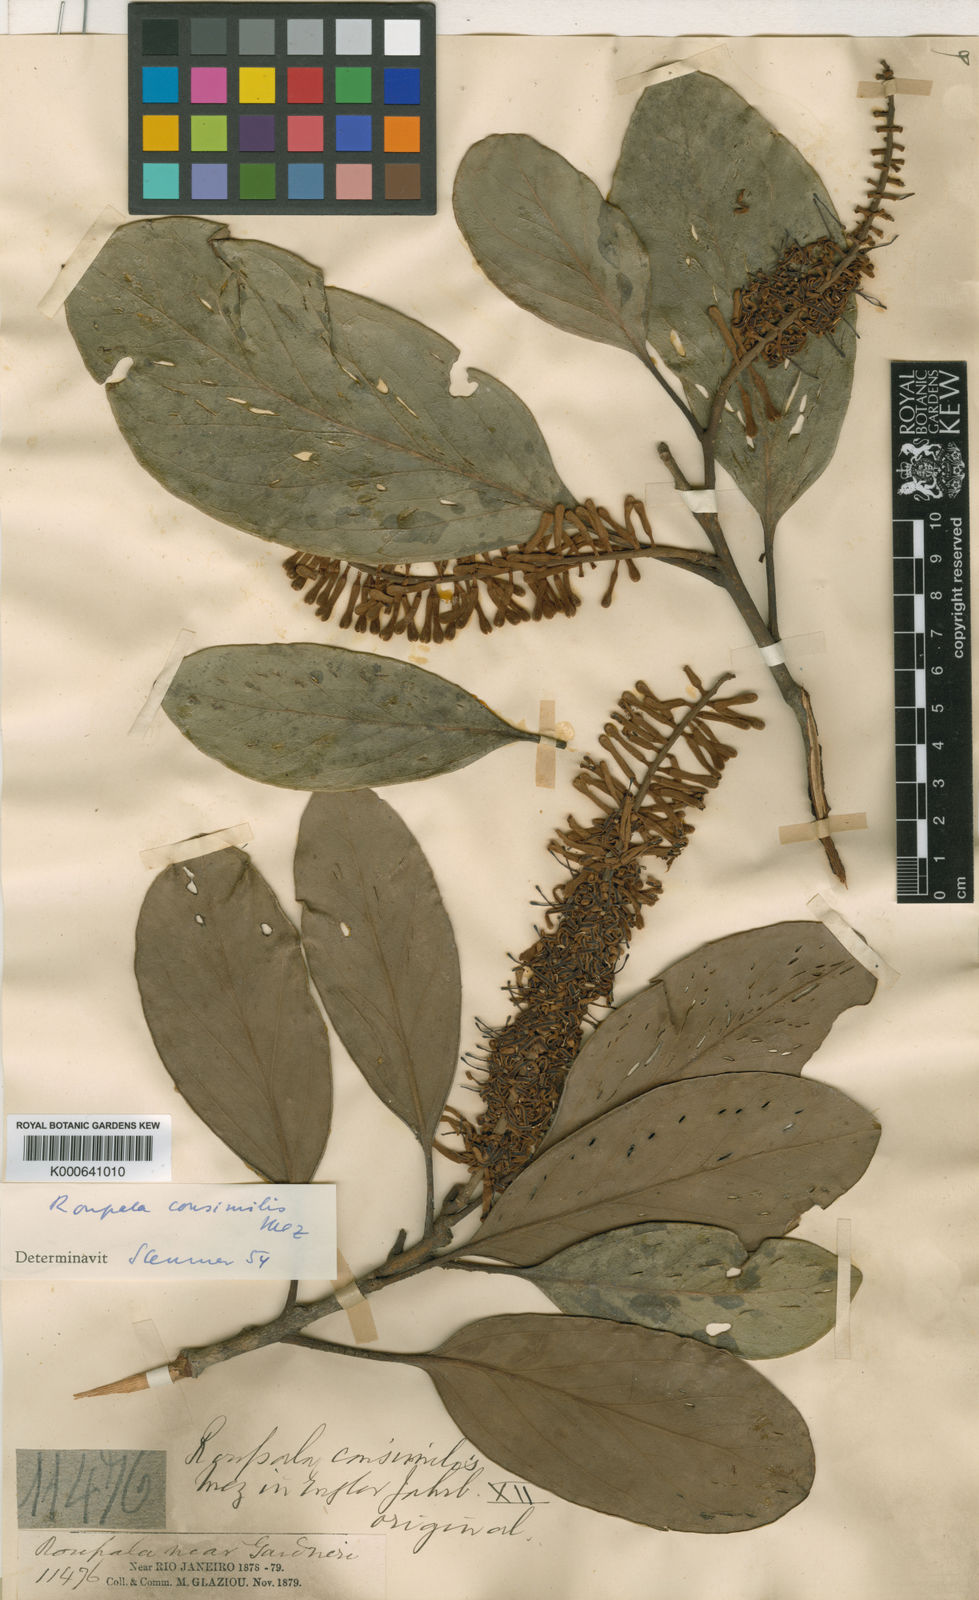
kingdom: Plantae
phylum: Tracheophyta
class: Magnoliopsida
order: Proteales
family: Proteaceae
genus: Roupala
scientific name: Roupala
